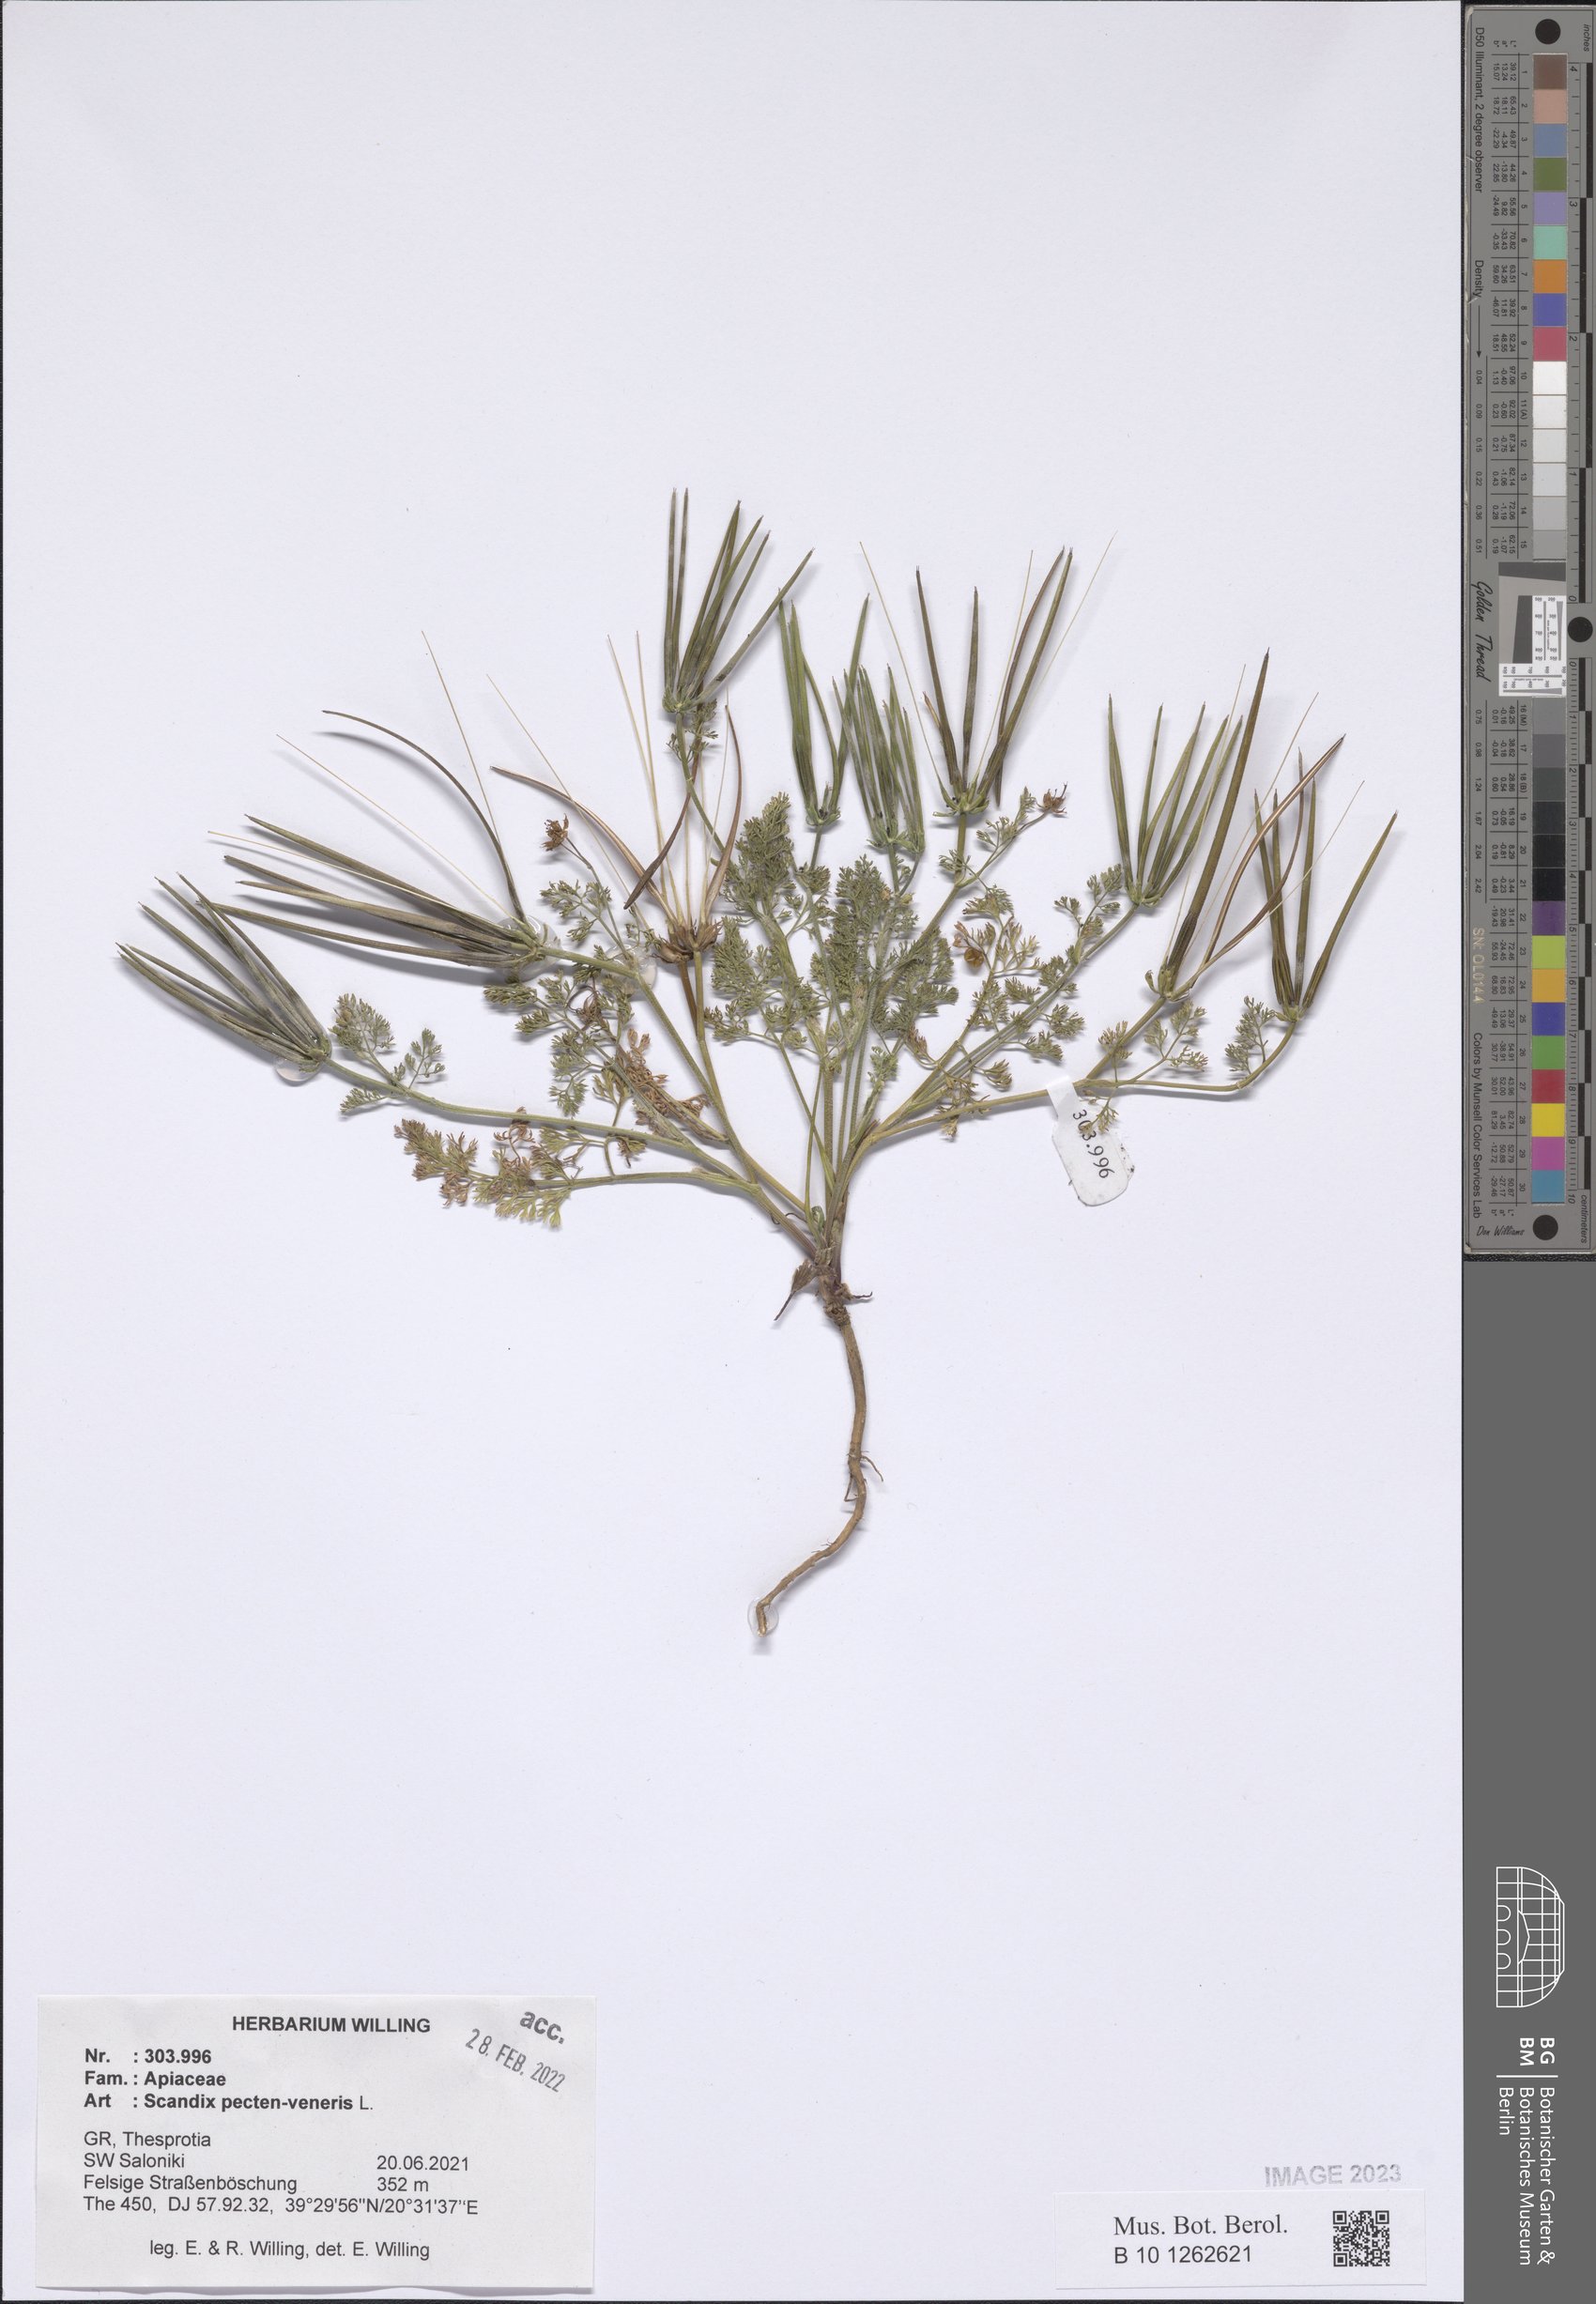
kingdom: Plantae
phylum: Tracheophyta
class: Magnoliopsida
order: Apiales
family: Apiaceae
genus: Scandix
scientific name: Scandix pecten-veneris
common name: Shepherd's-needle
